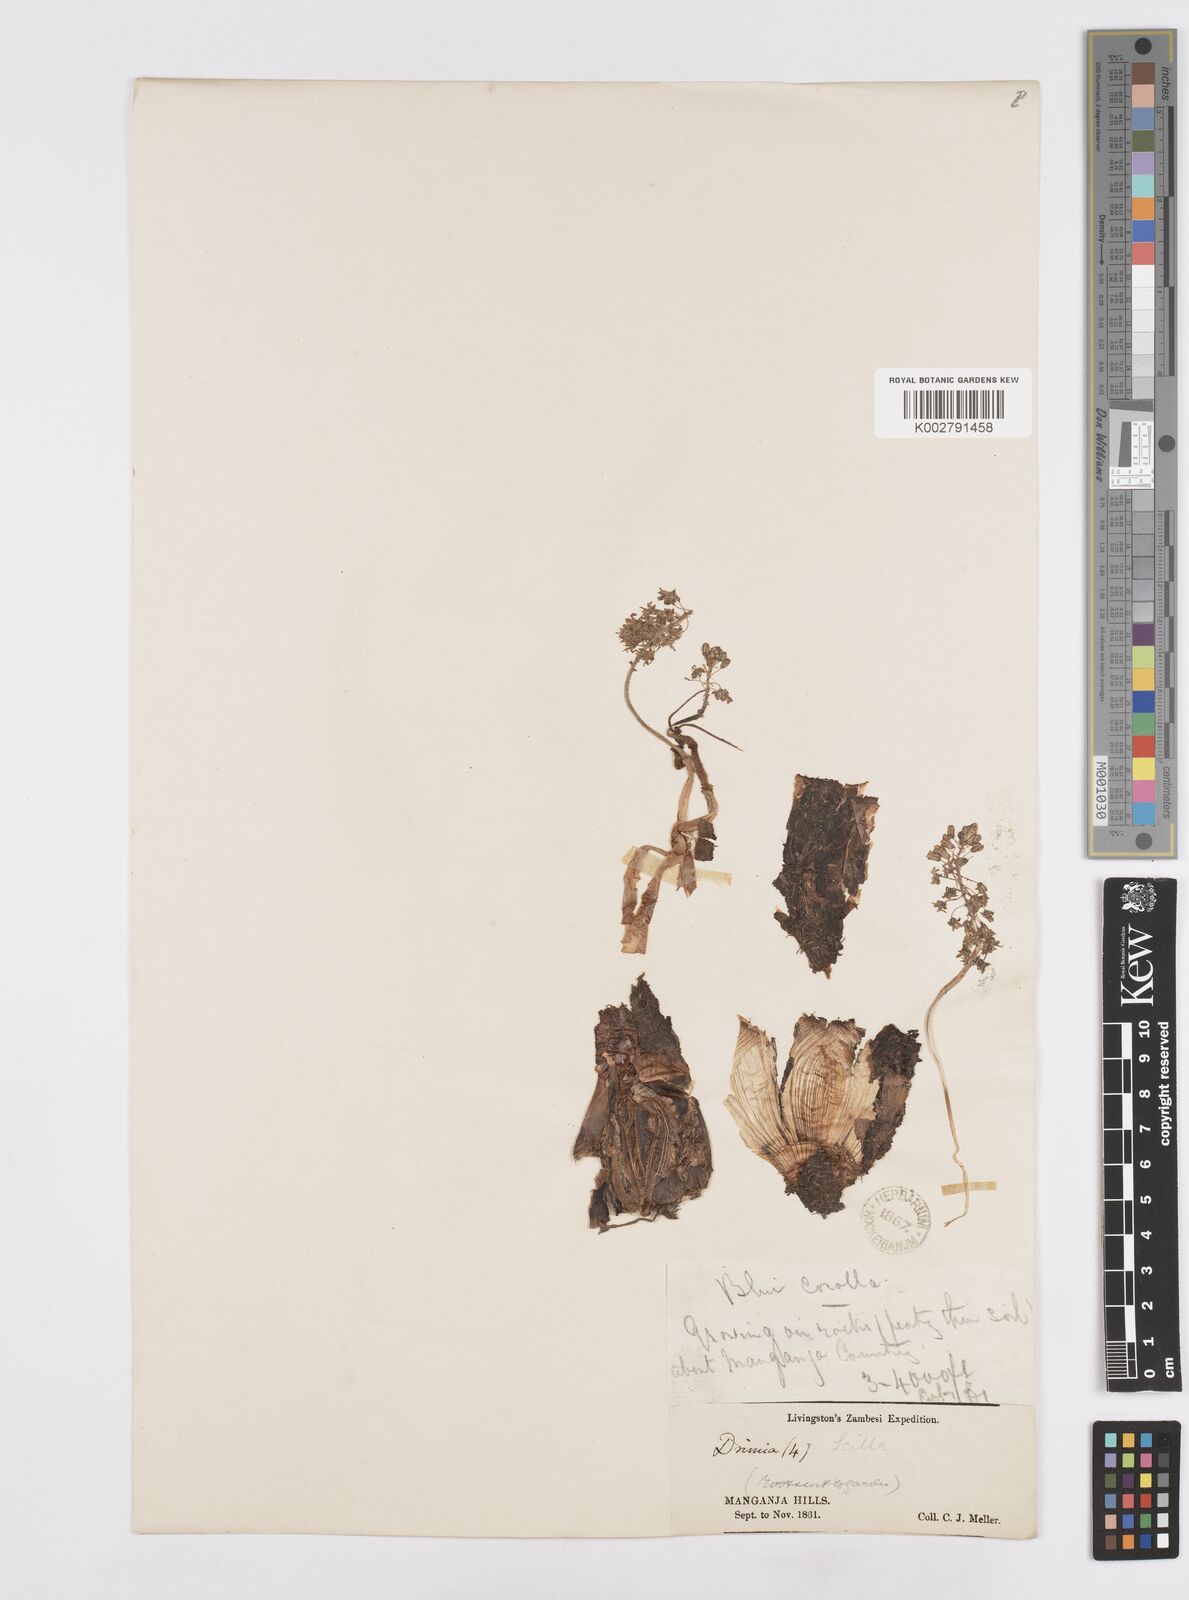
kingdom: Plantae
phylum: Tracheophyta
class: Liliopsida
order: Asparagales
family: Asparagaceae
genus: Scilla
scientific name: Scilla
